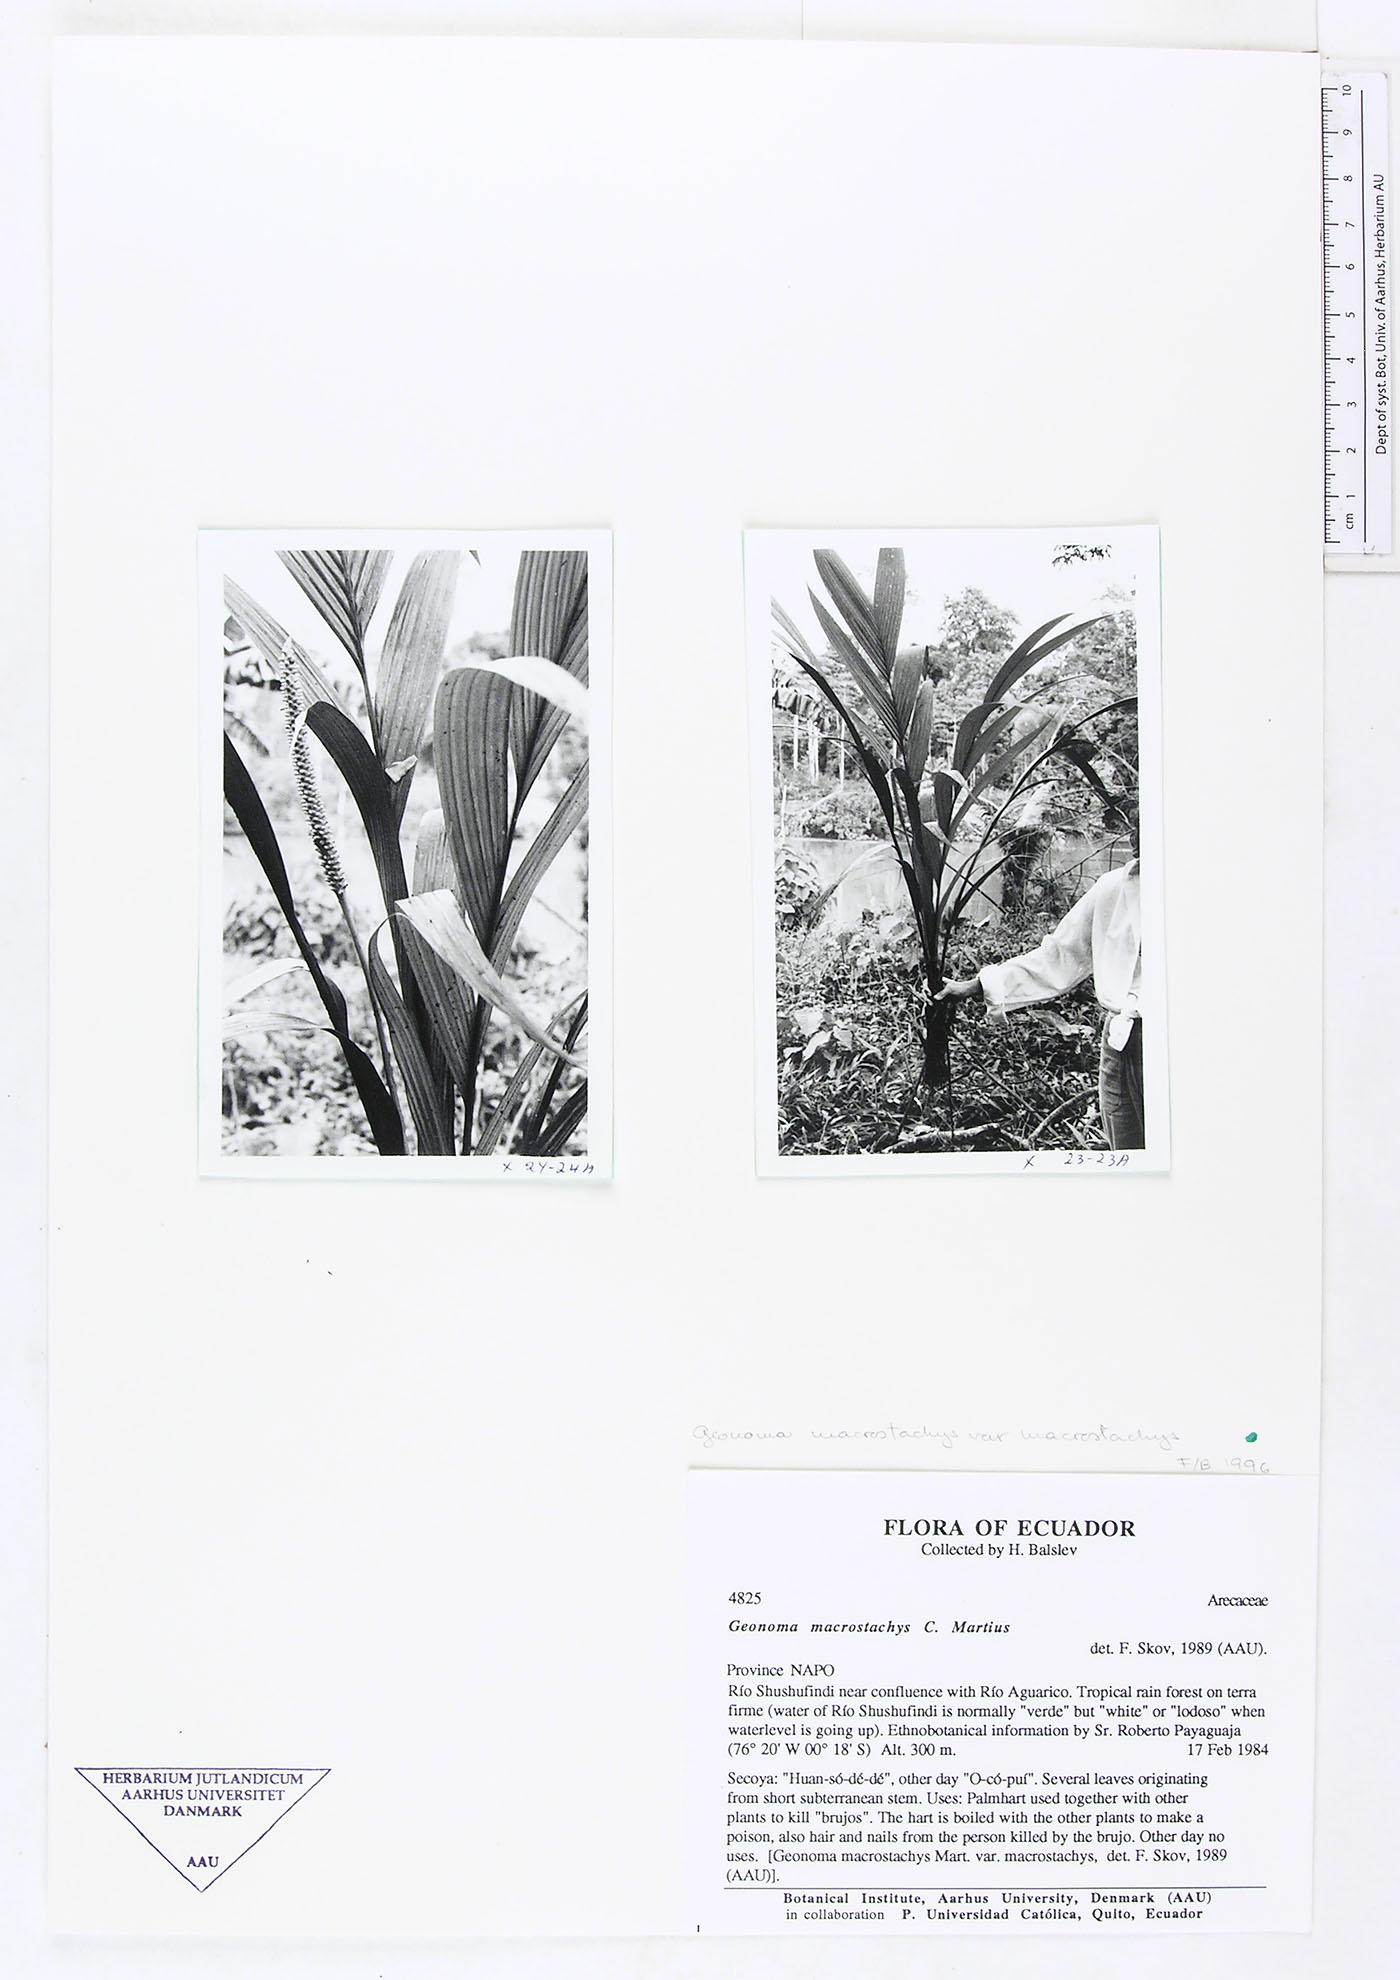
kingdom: Plantae
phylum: Tracheophyta
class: Liliopsida
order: Arecales
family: Arecaceae
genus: Geonoma
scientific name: Geonoma macrostachys
